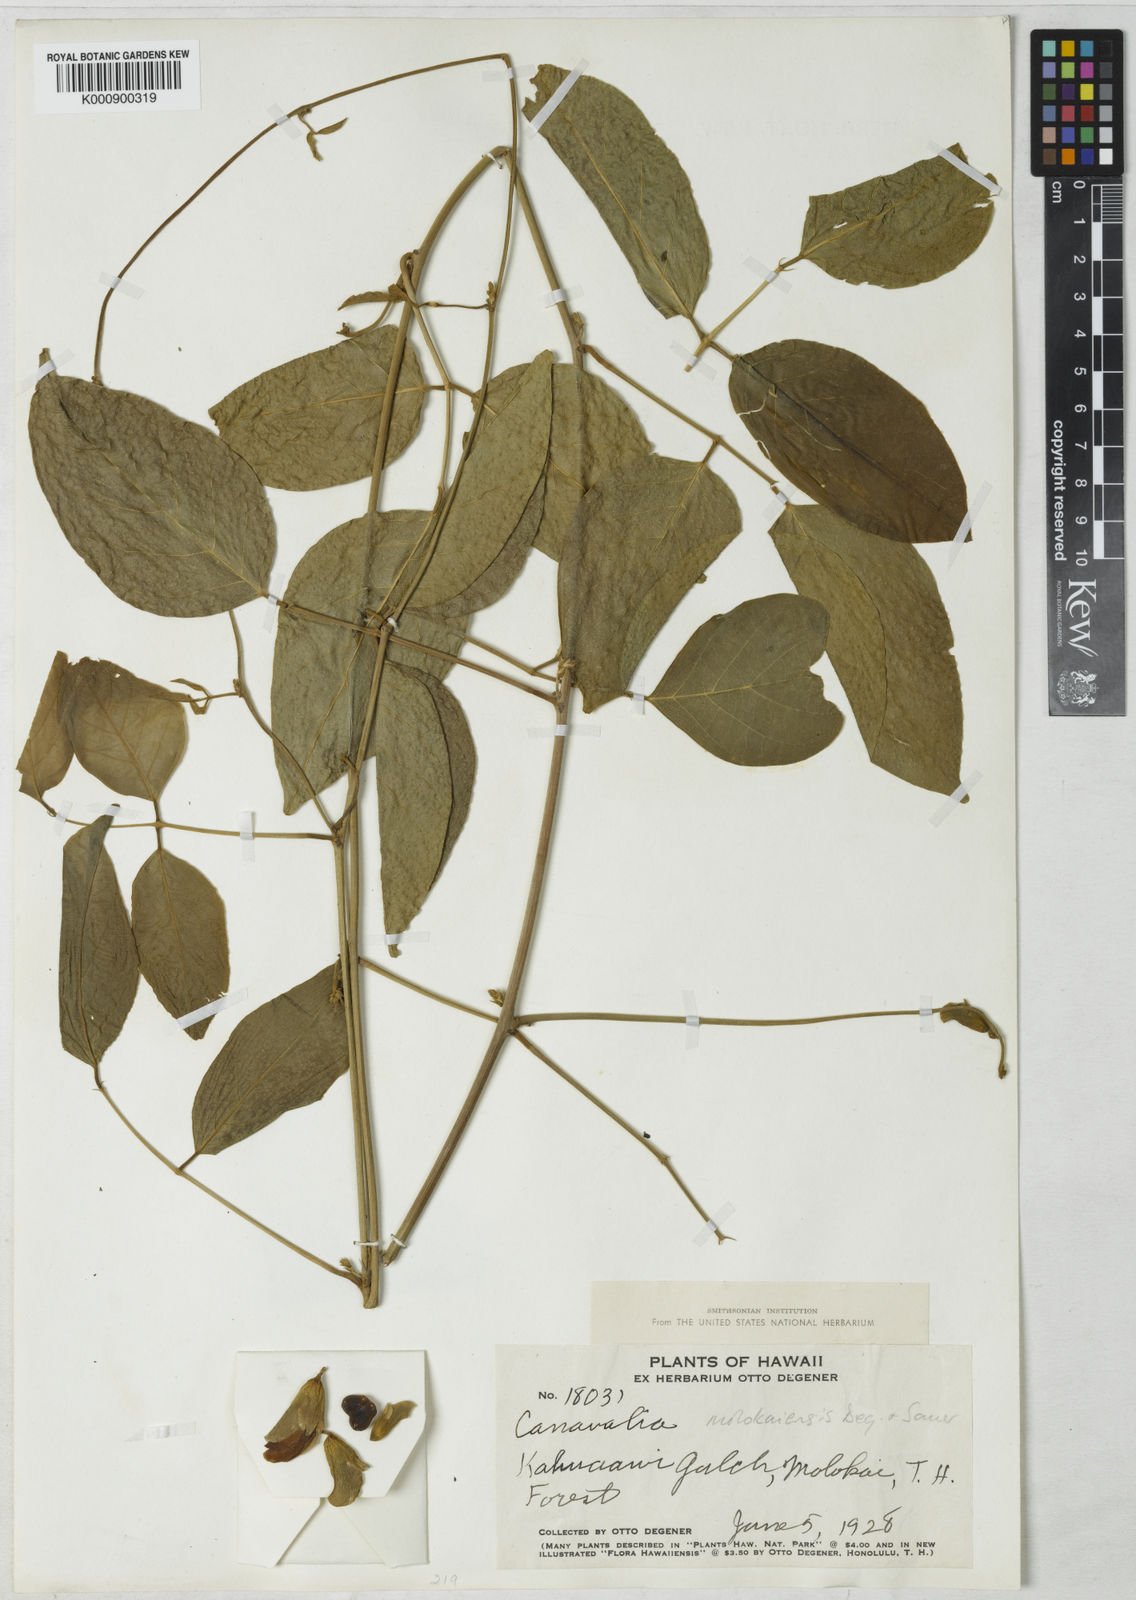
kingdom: Plantae
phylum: Tracheophyta
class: Magnoliopsida
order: Fabales
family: Fabaceae
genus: Canavalia
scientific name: Canavalia
